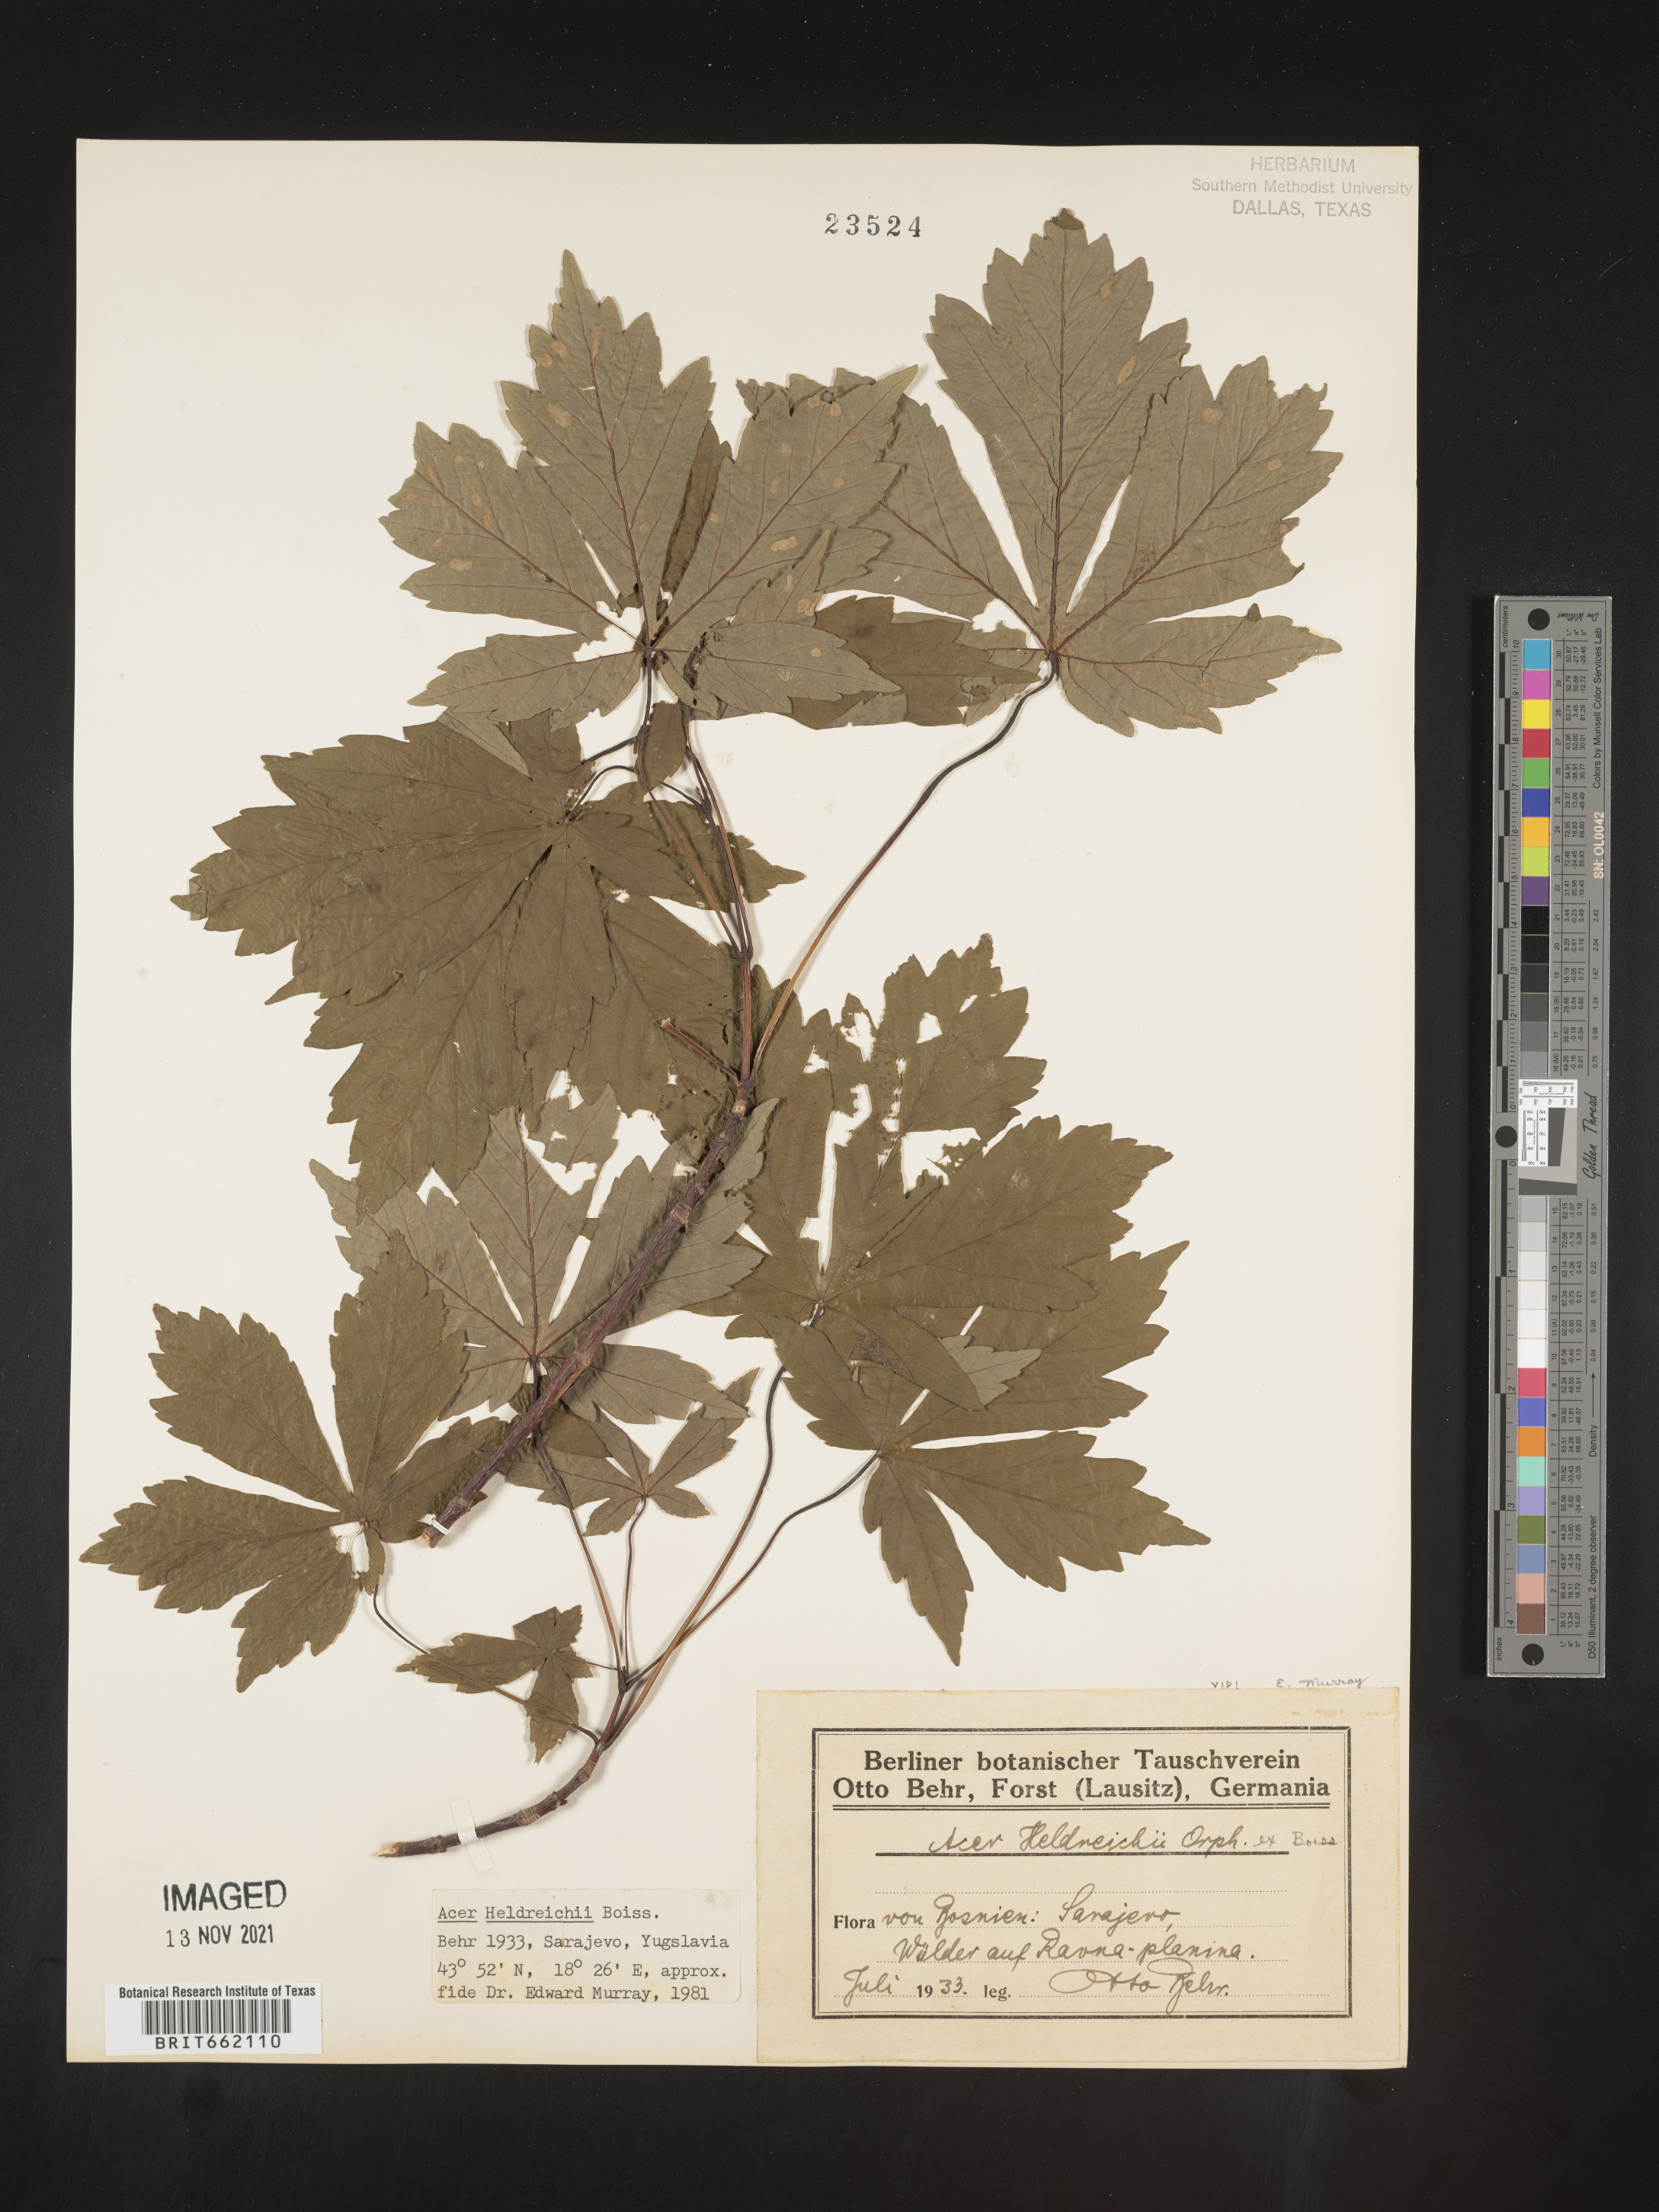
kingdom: Plantae
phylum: Tracheophyta
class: Magnoliopsida
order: Sapindales
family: Sapindaceae
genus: Acer
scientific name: Acer
